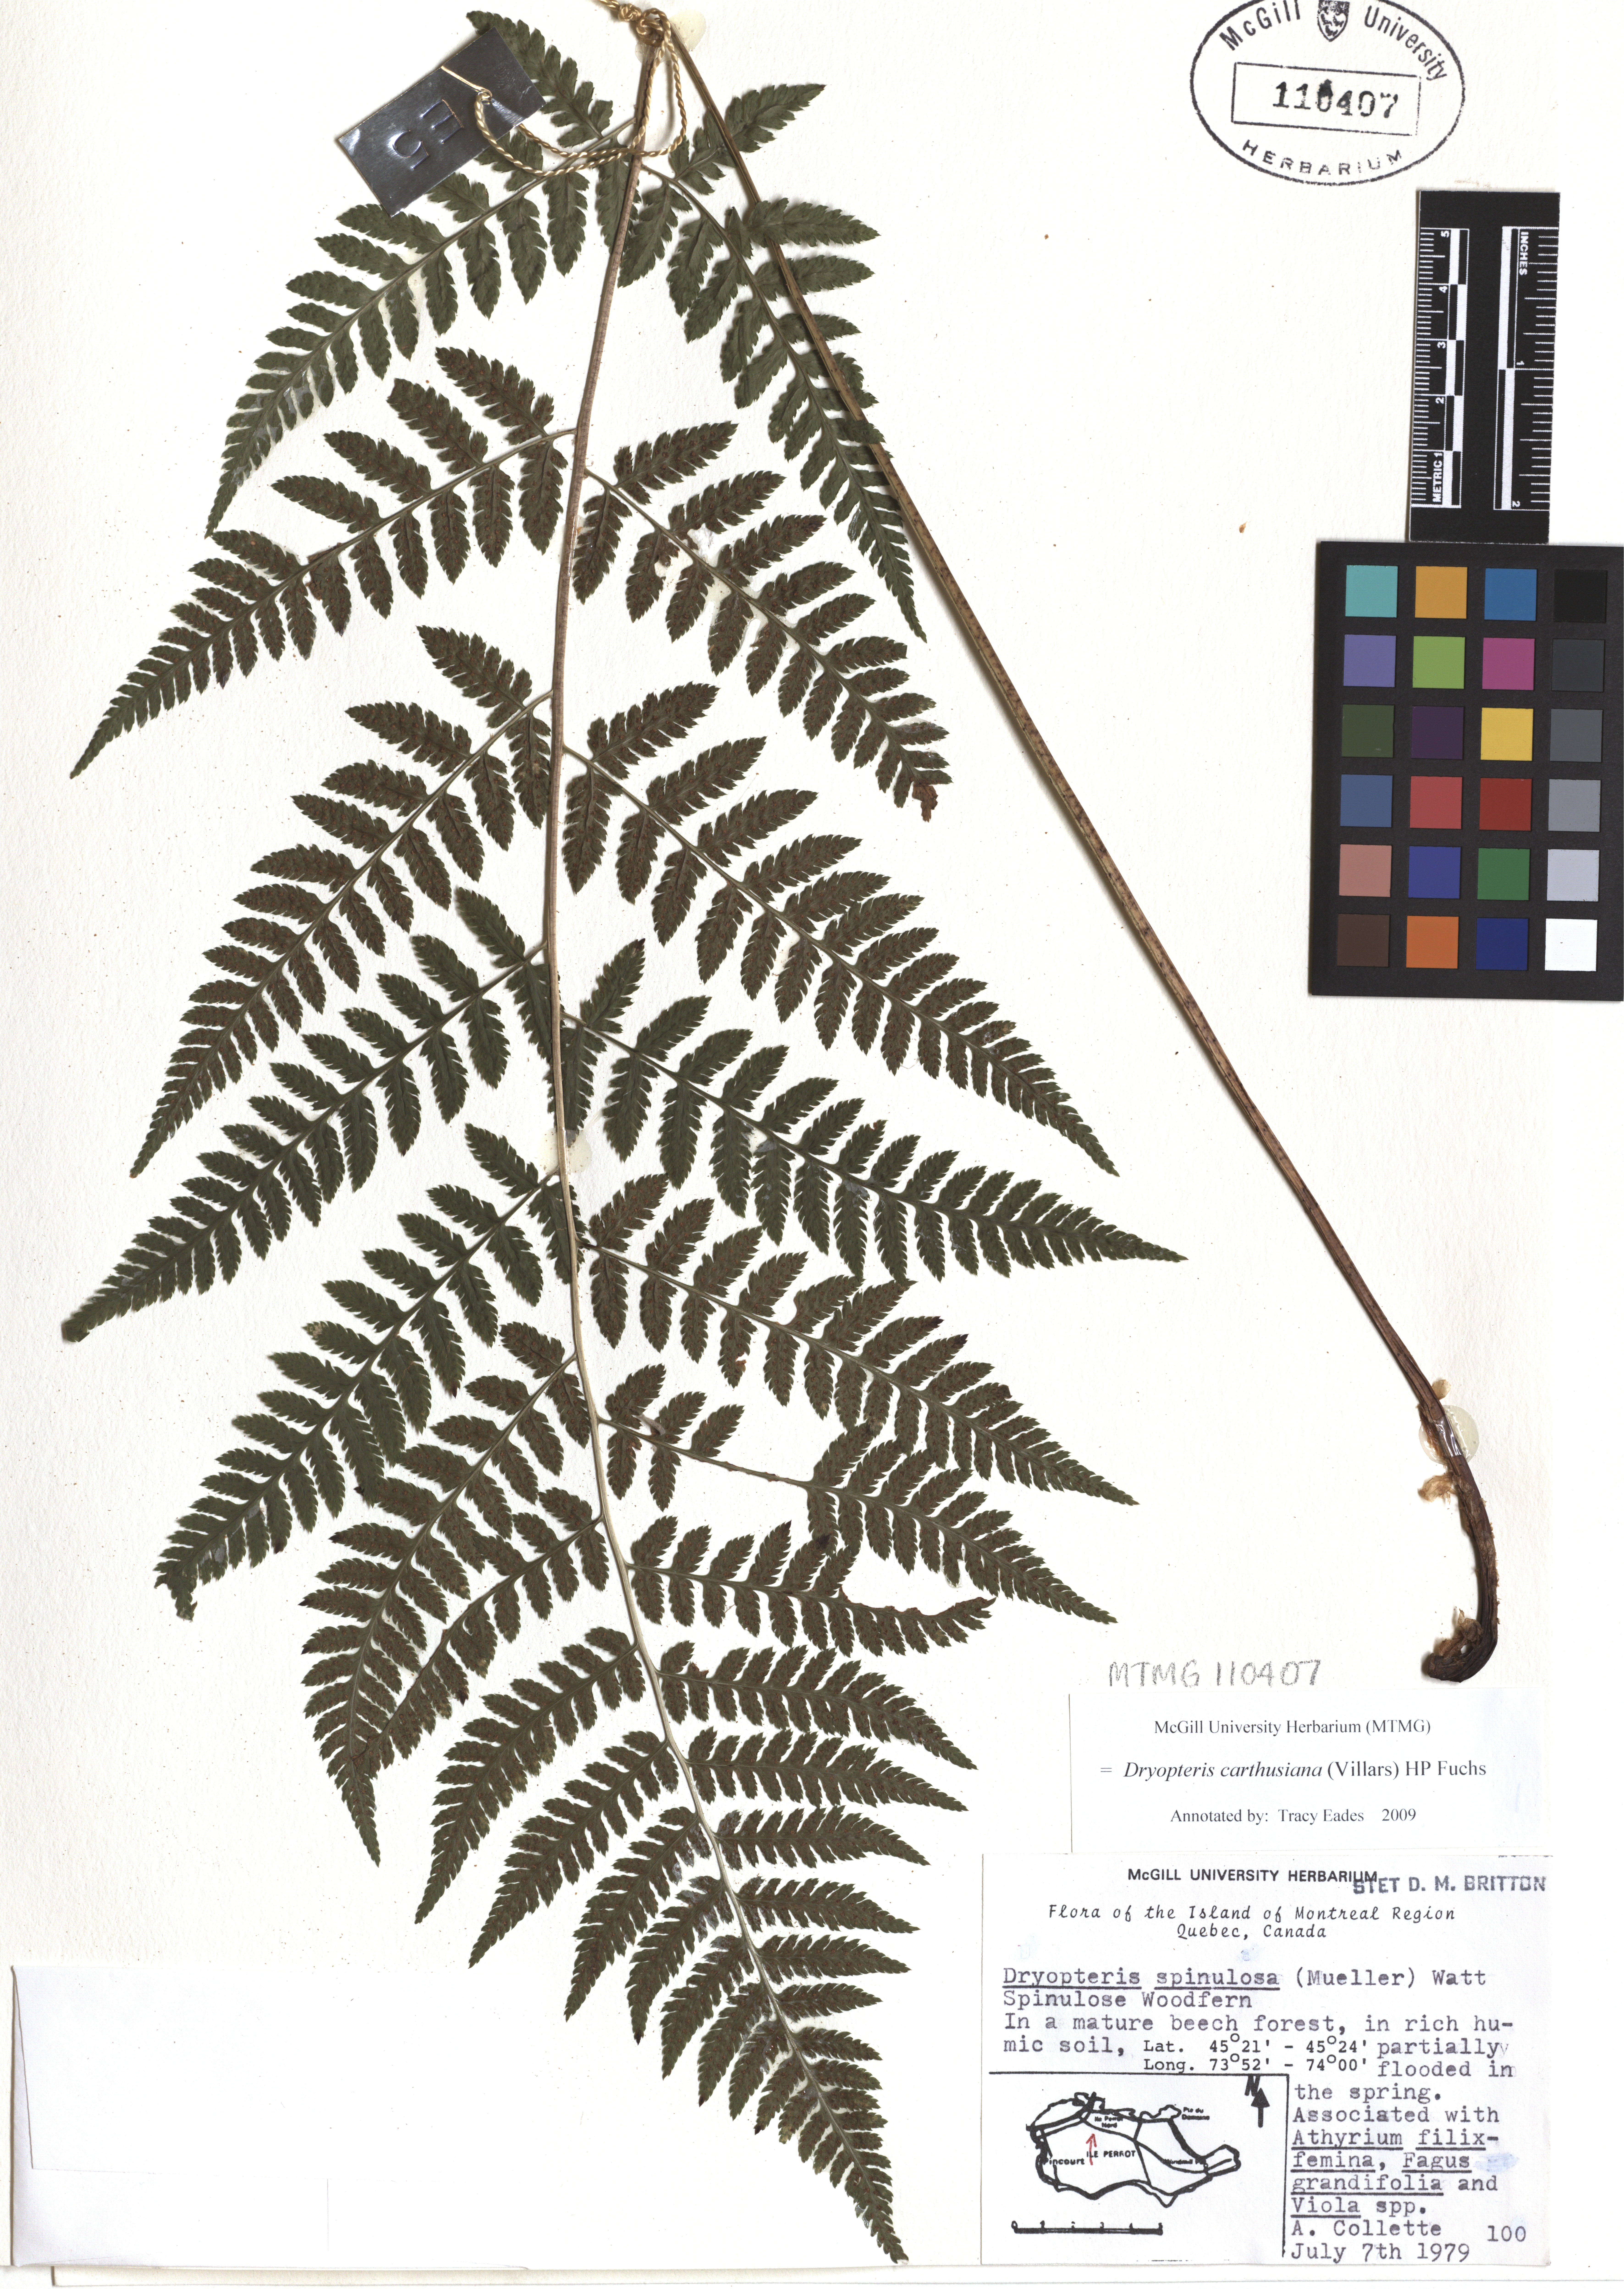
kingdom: Plantae
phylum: Tracheophyta
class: Polypodiopsida
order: Polypodiales
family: Dryopteridaceae
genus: Dryopteris
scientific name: Dryopteris carthusiana
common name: Narrow buckler-fern
